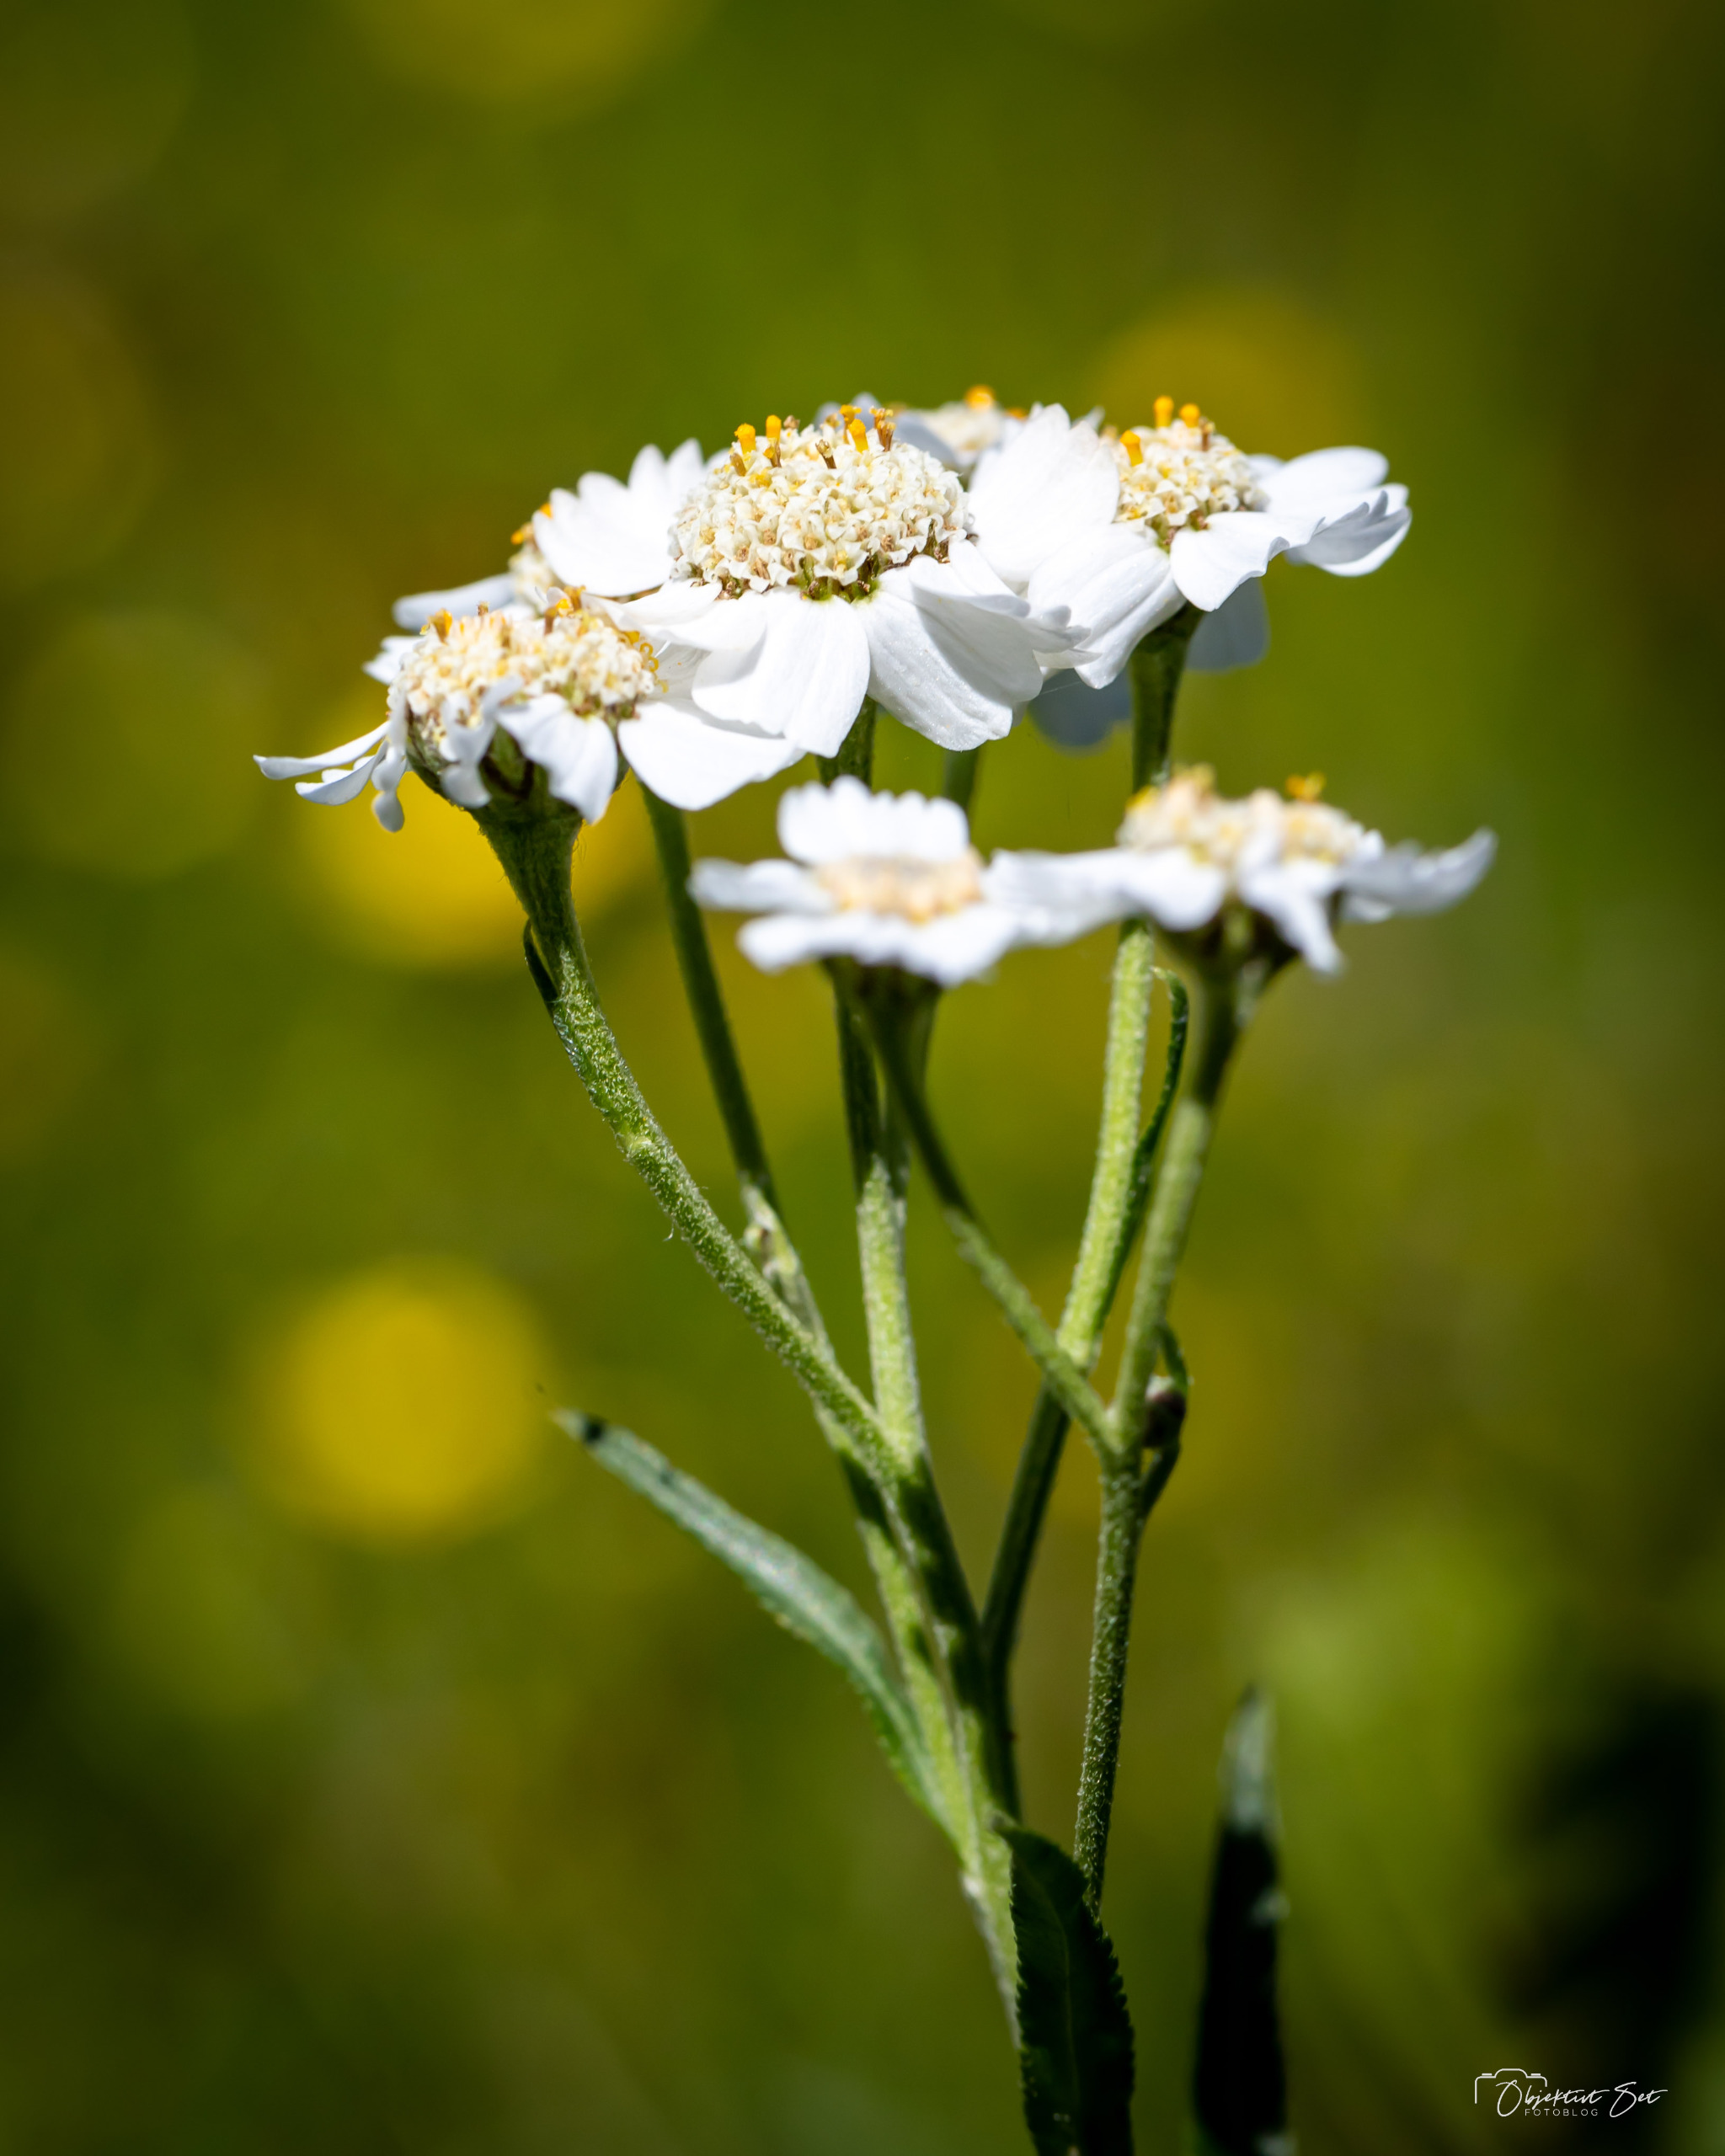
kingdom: Plantae
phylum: Tracheophyta
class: Magnoliopsida
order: Asterales
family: Asteraceae
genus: Achillea
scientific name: Achillea ptarmica
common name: Nyse-røllike
